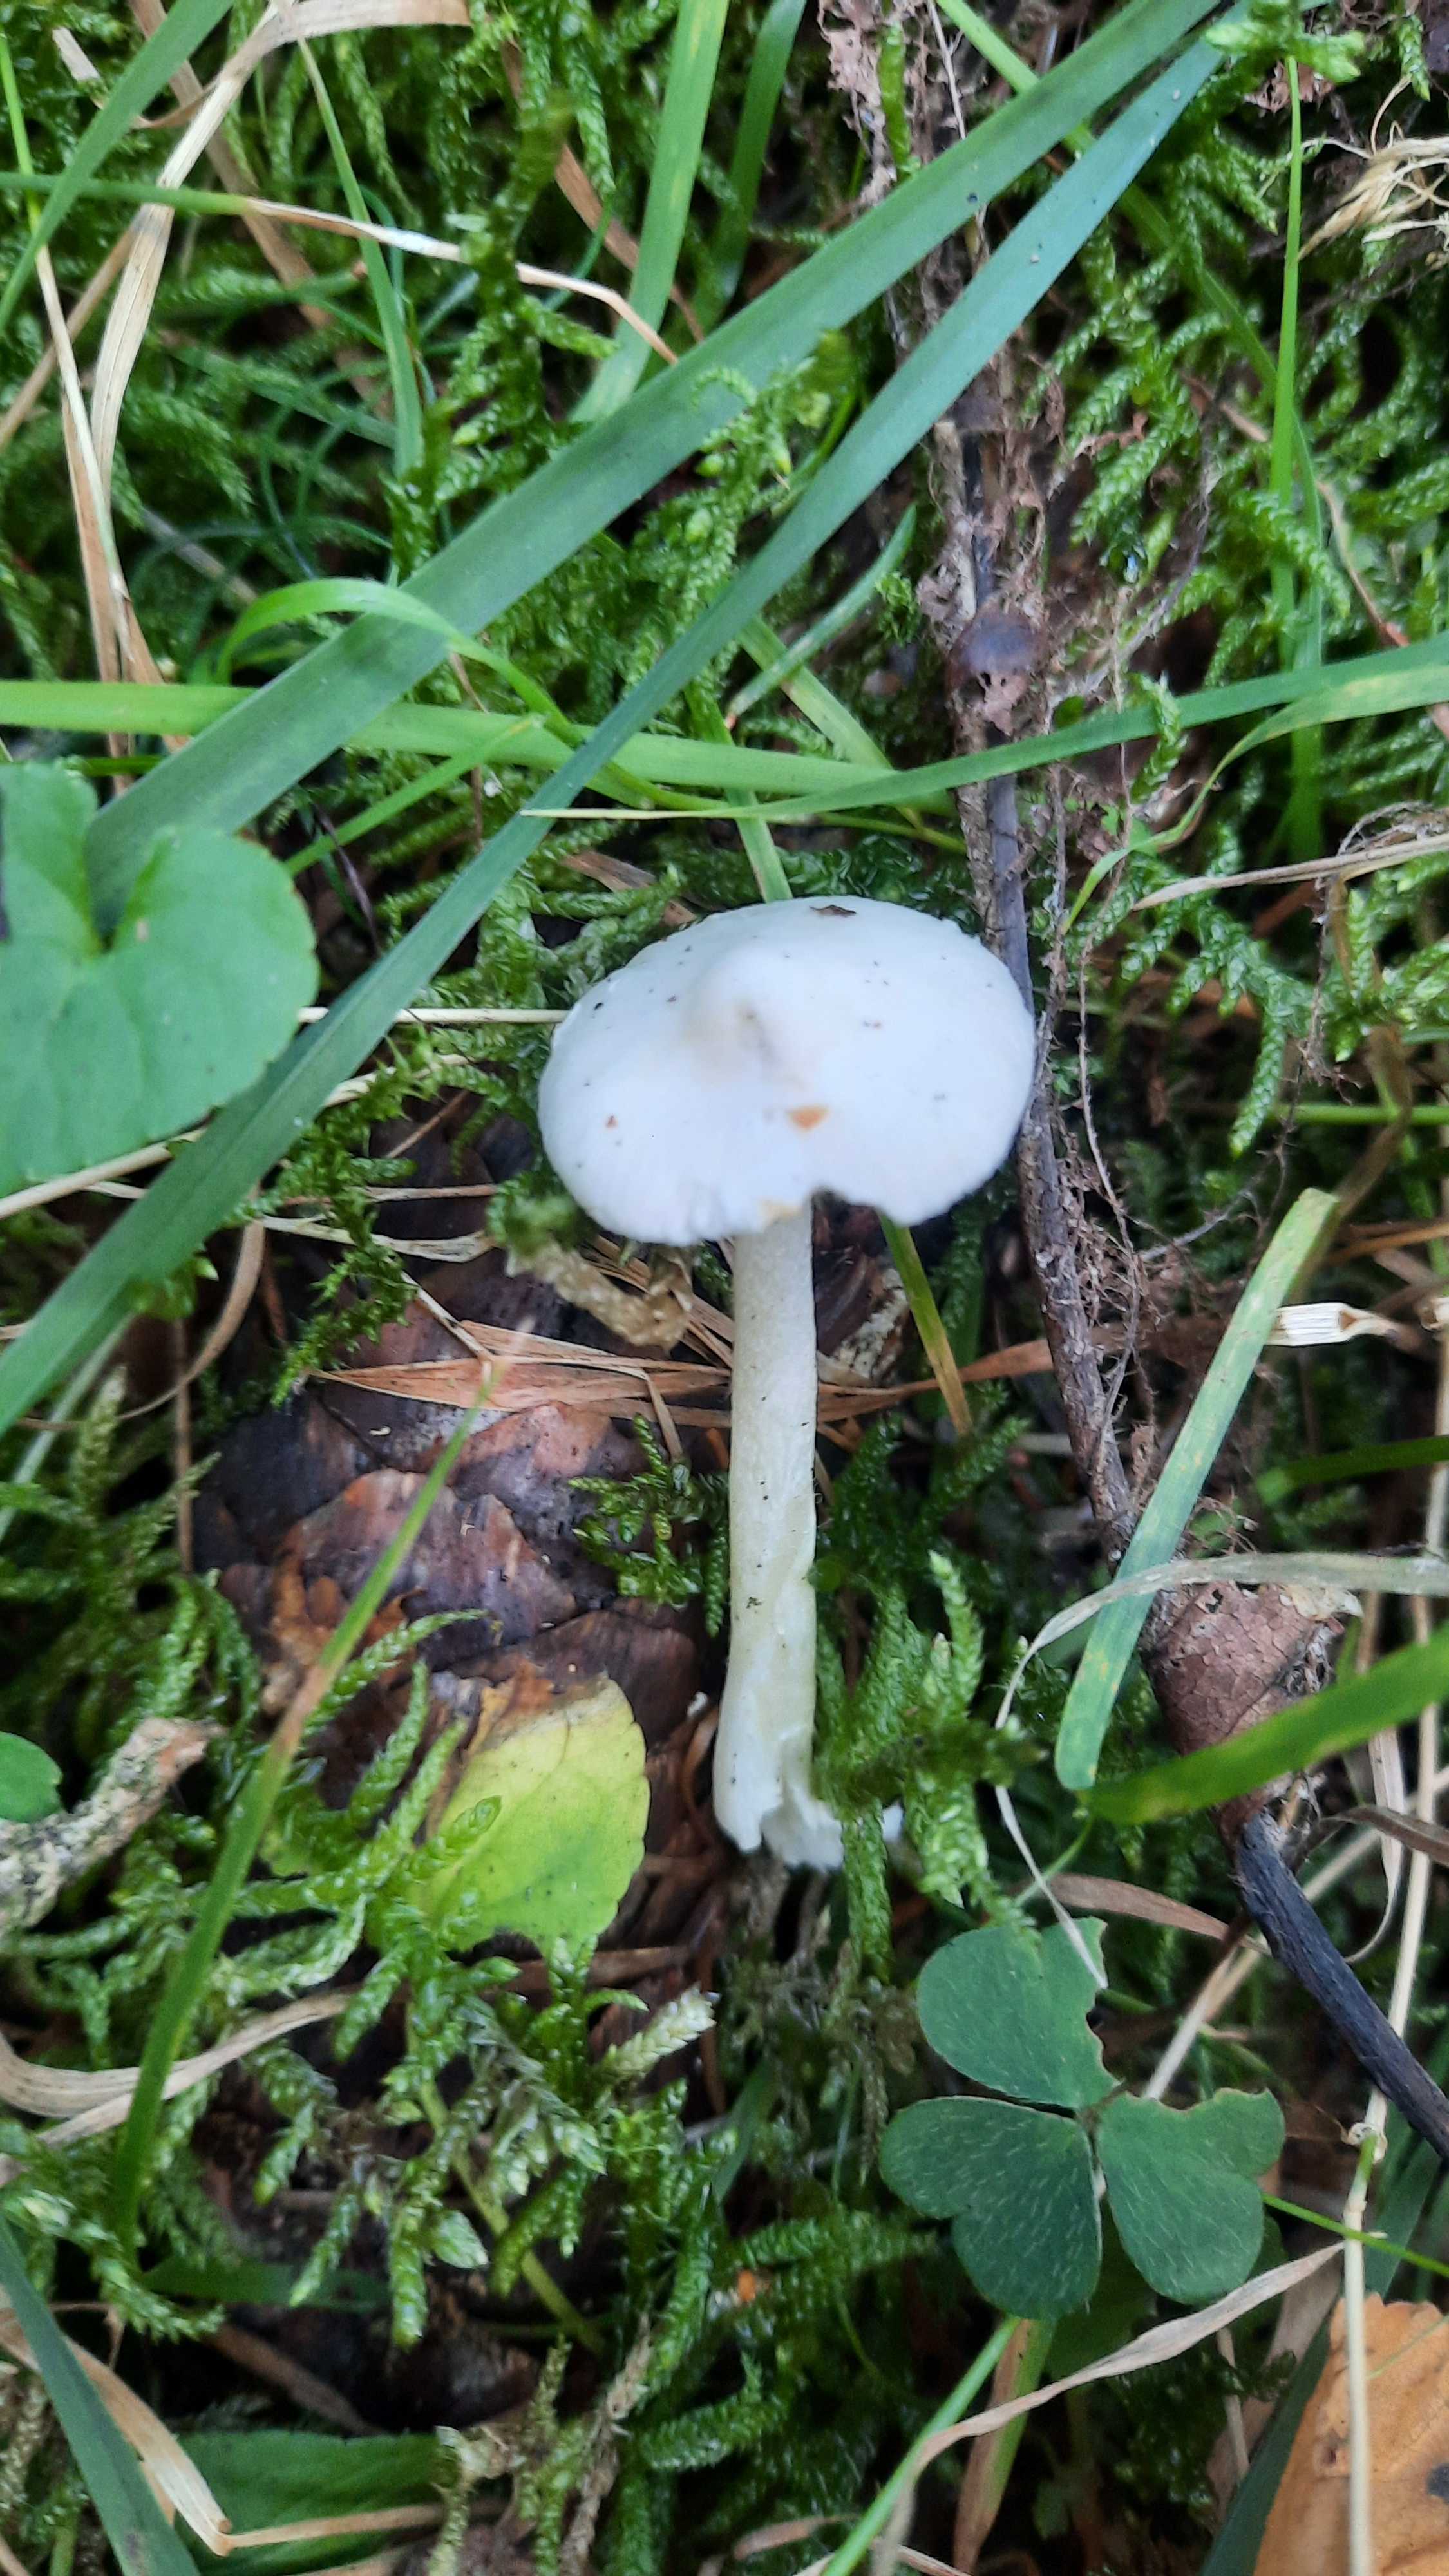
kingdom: Fungi
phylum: Basidiomycota
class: Agaricomycetes
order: Agaricales
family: Inocybaceae
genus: Inocybe
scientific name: Inocybe
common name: almindelig trævlhat
